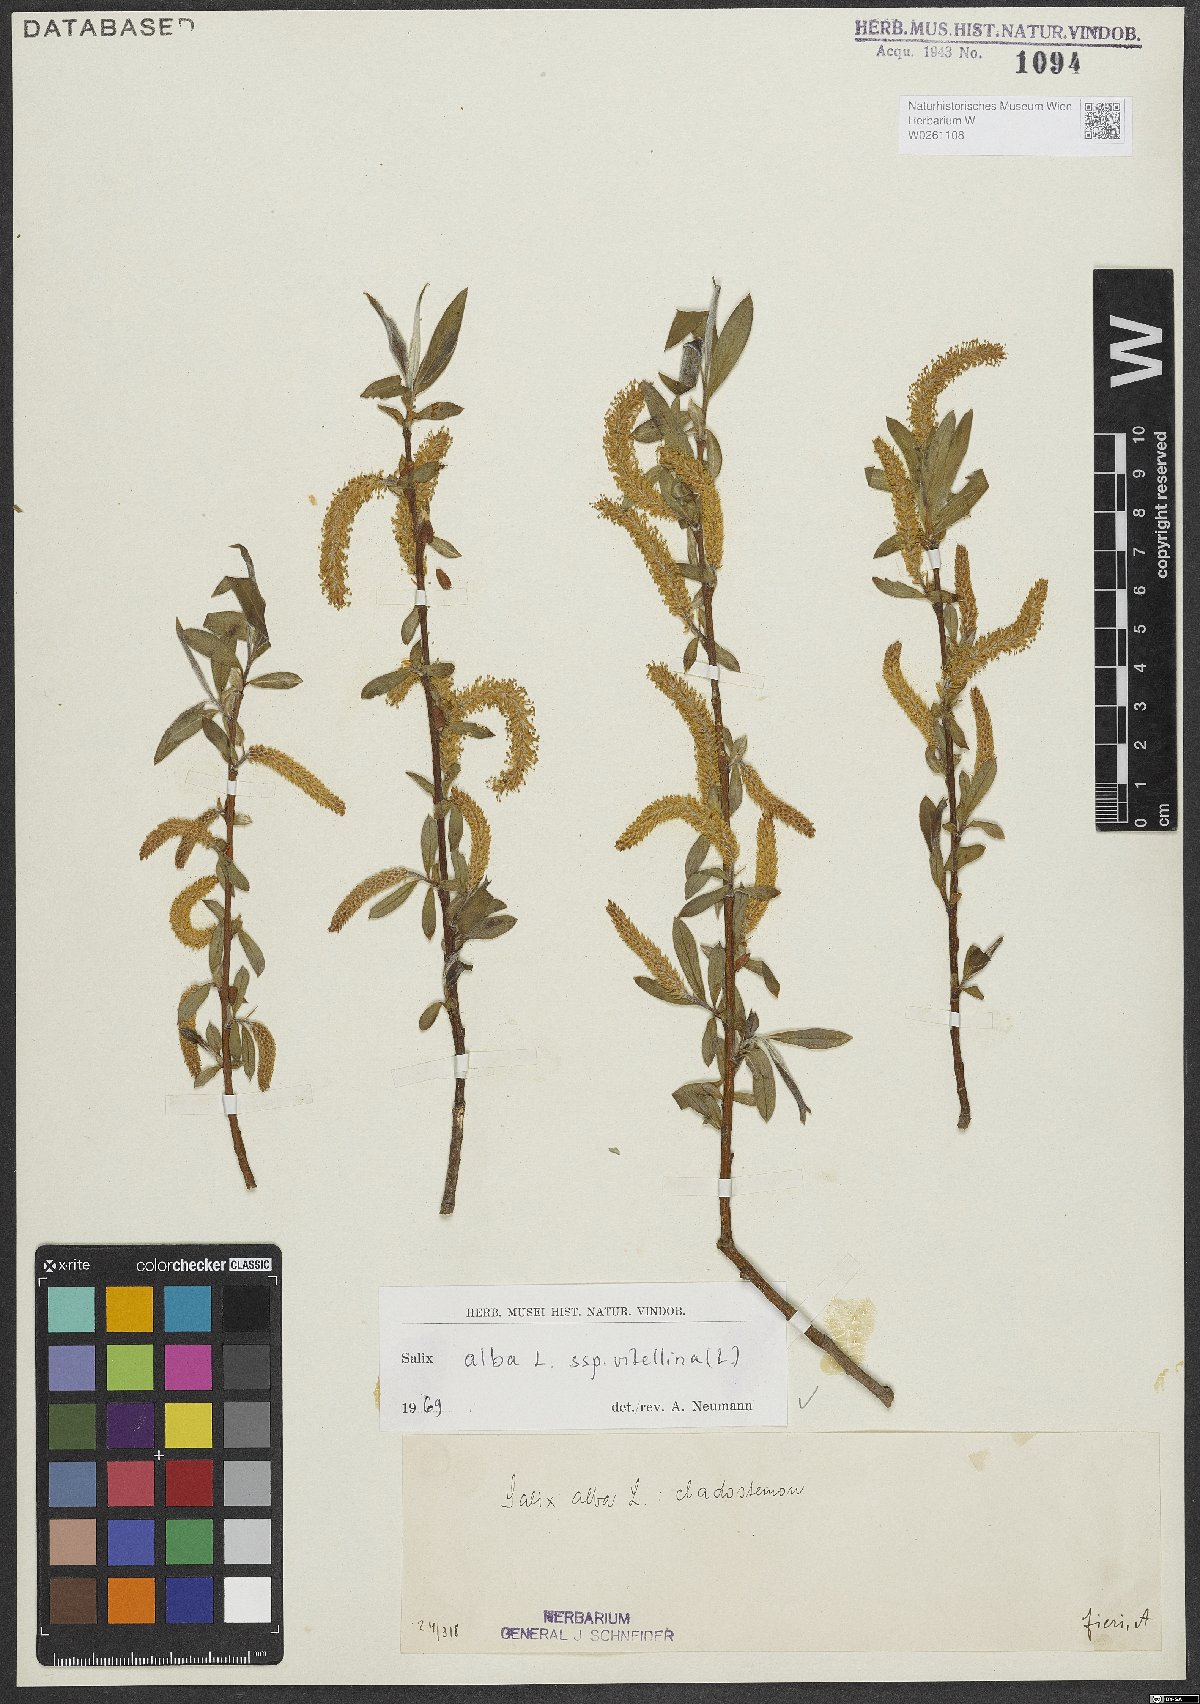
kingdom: Plantae
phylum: Tracheophyta
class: Magnoliopsida
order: Malpighiales
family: Salicaceae
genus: Salix
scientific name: Salix alba
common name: White willow
